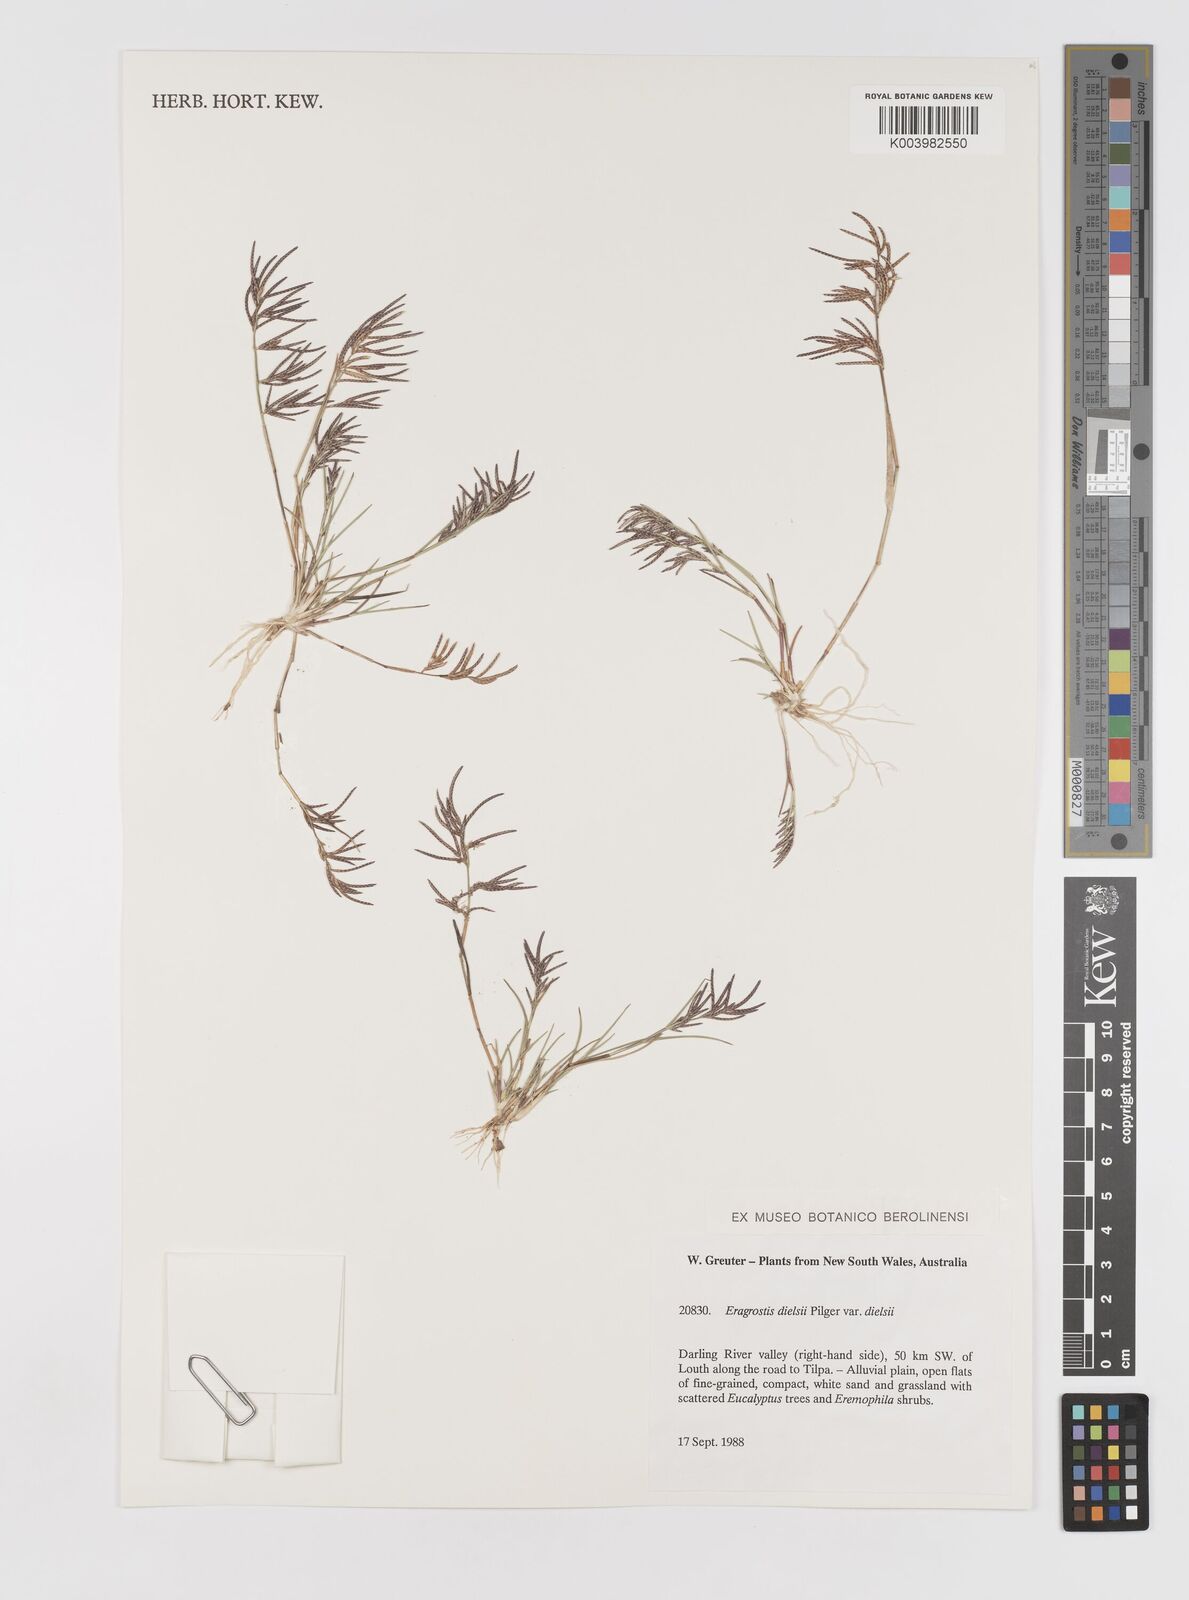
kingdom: Plantae
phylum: Tracheophyta
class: Liliopsida
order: Poales
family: Poaceae
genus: Eragrostis
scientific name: Eragrostis dielsii
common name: Lovegrass
